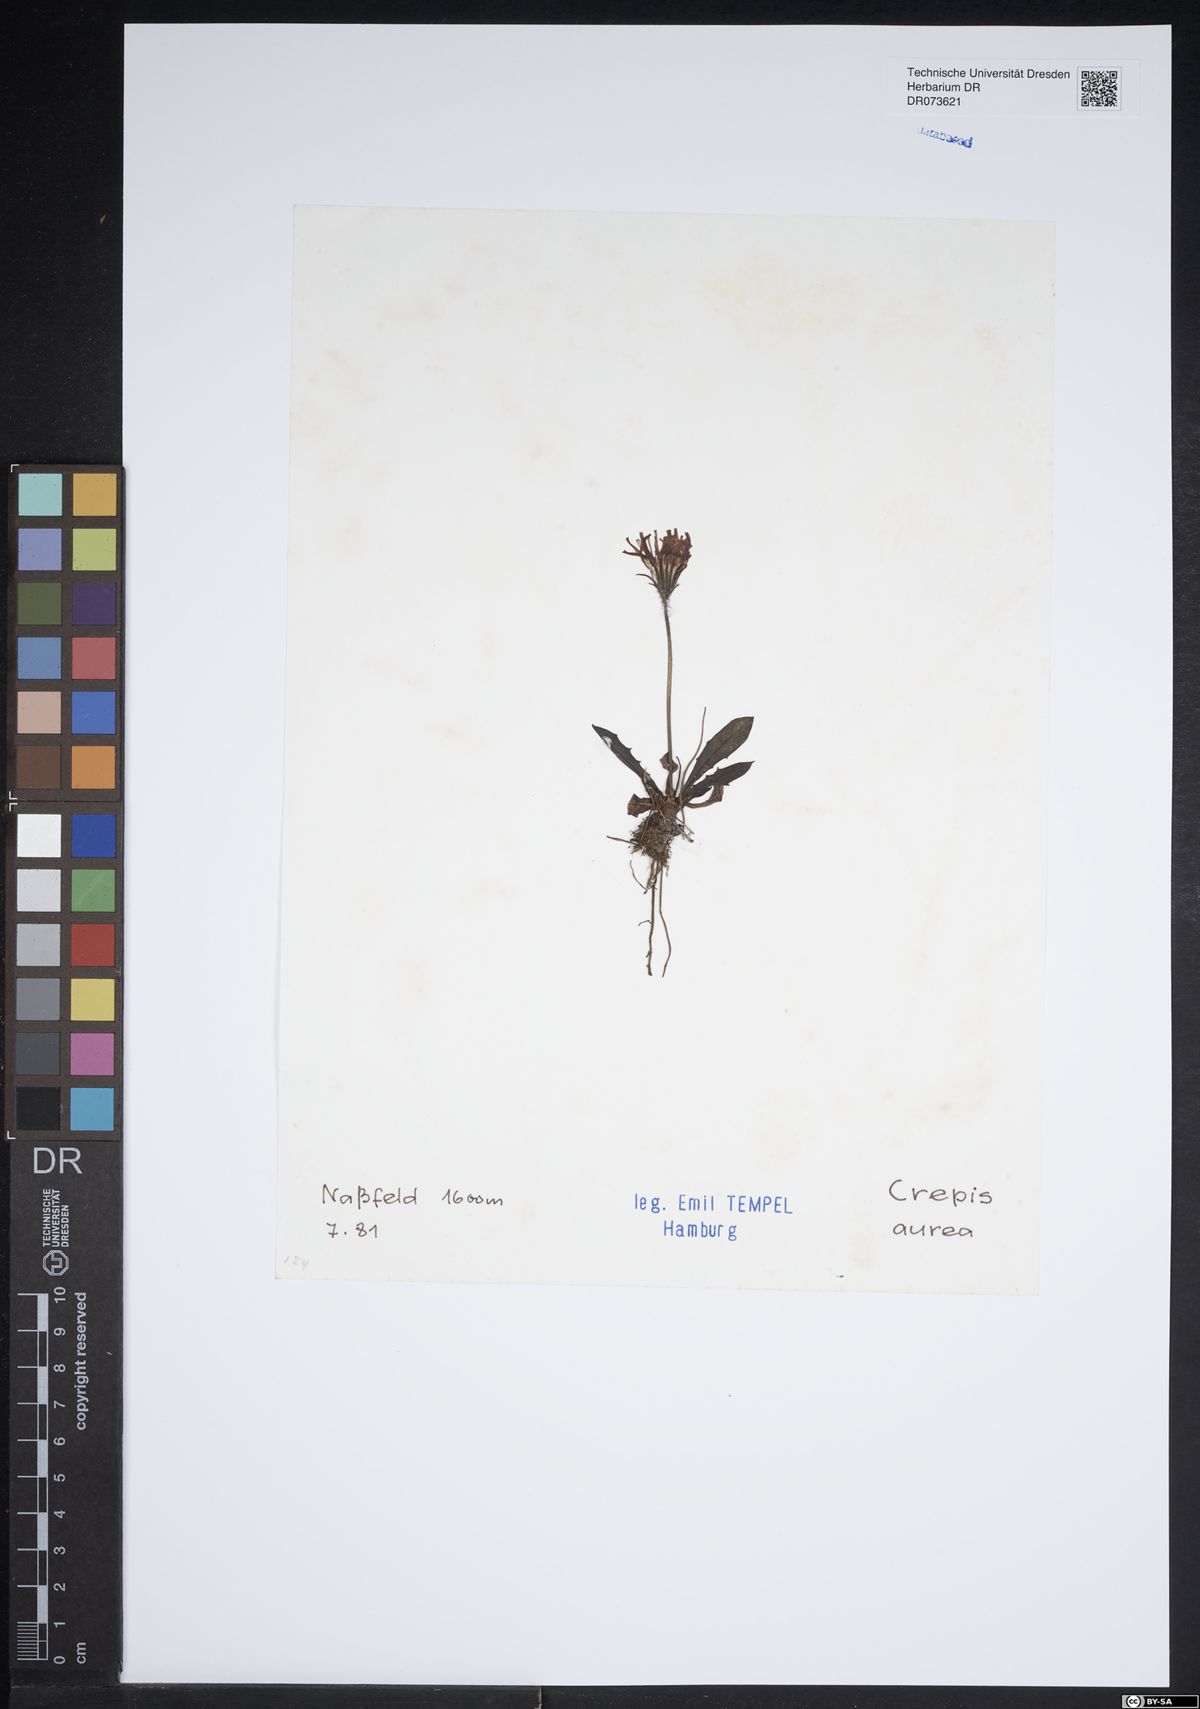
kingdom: Plantae
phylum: Tracheophyta
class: Magnoliopsida
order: Asterales
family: Asteraceae
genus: Crepis
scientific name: Crepis aurea
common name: Golden hawk's-beard
